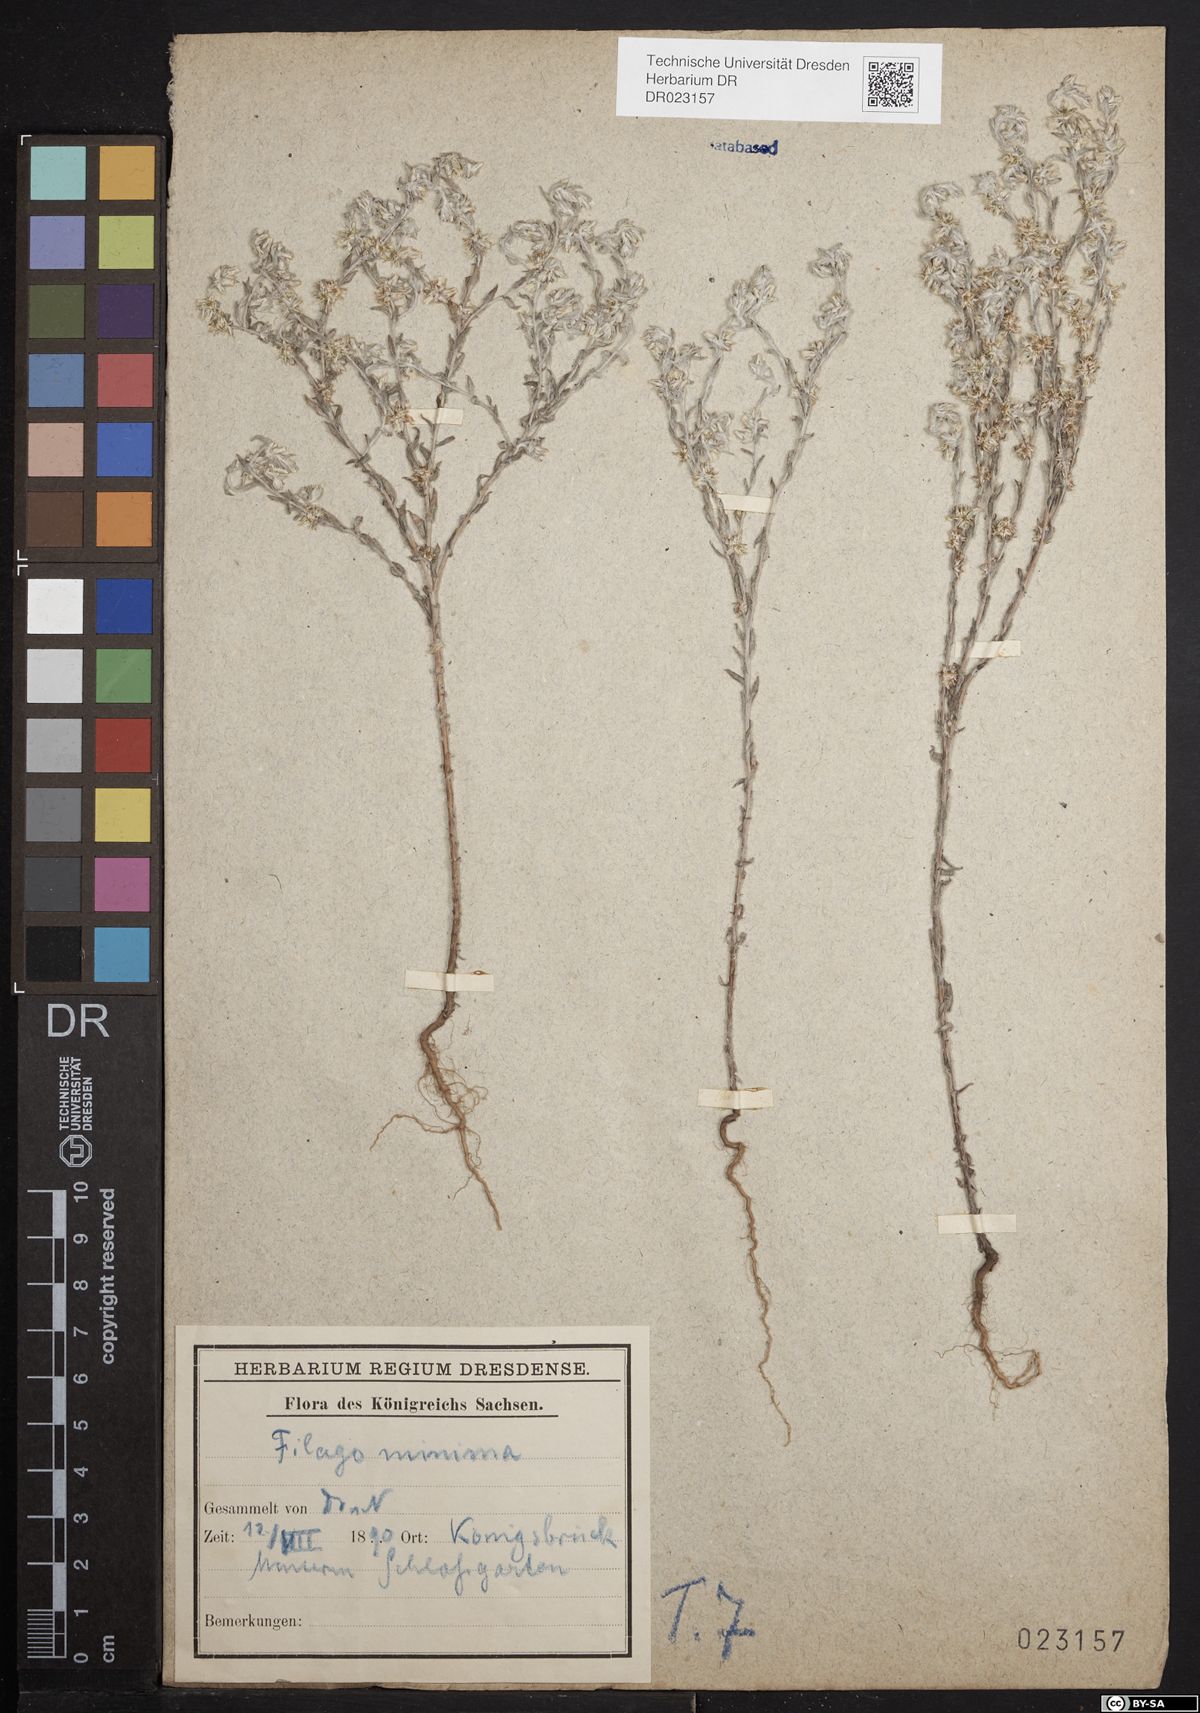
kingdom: Plantae
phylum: Tracheophyta
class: Magnoliopsida
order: Asterales
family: Asteraceae
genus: Logfia
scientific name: Logfia minima
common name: Little cottonrose
